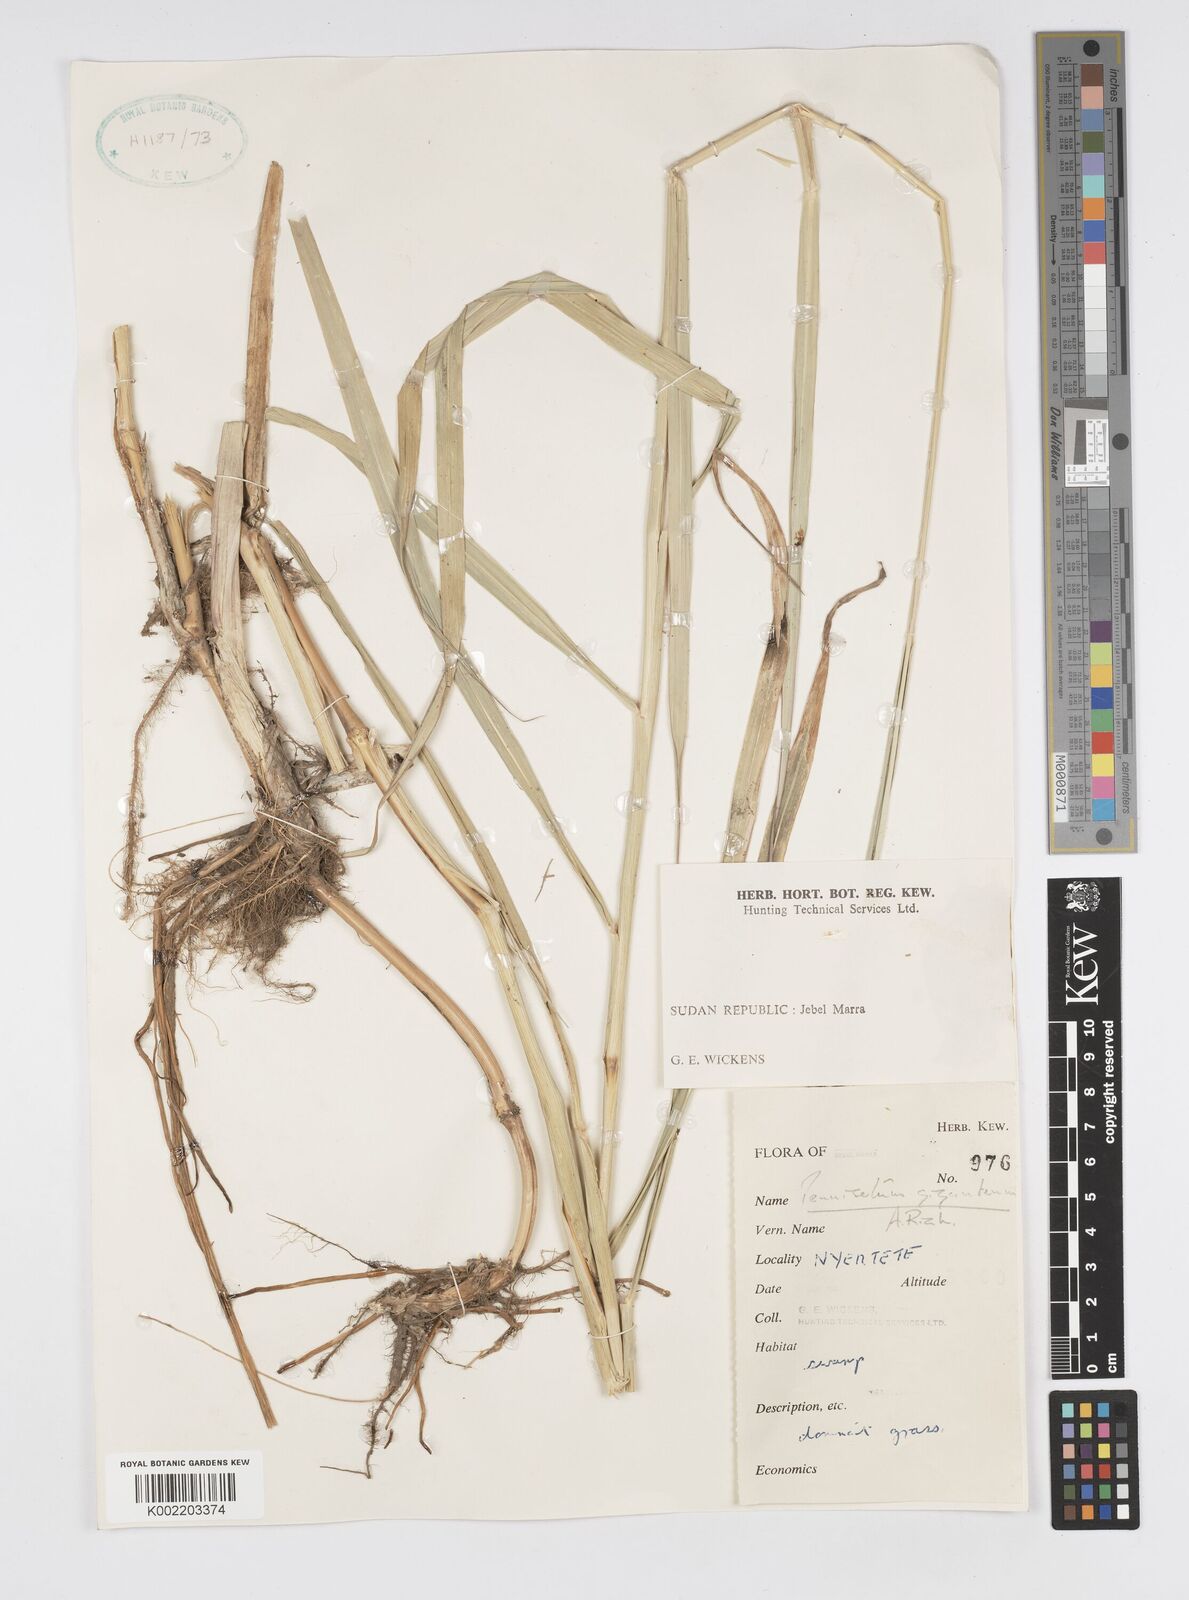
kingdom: Plantae
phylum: Tracheophyta
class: Liliopsida
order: Poales
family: Poaceae
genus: Cenchrus
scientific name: Cenchrus caudatus
